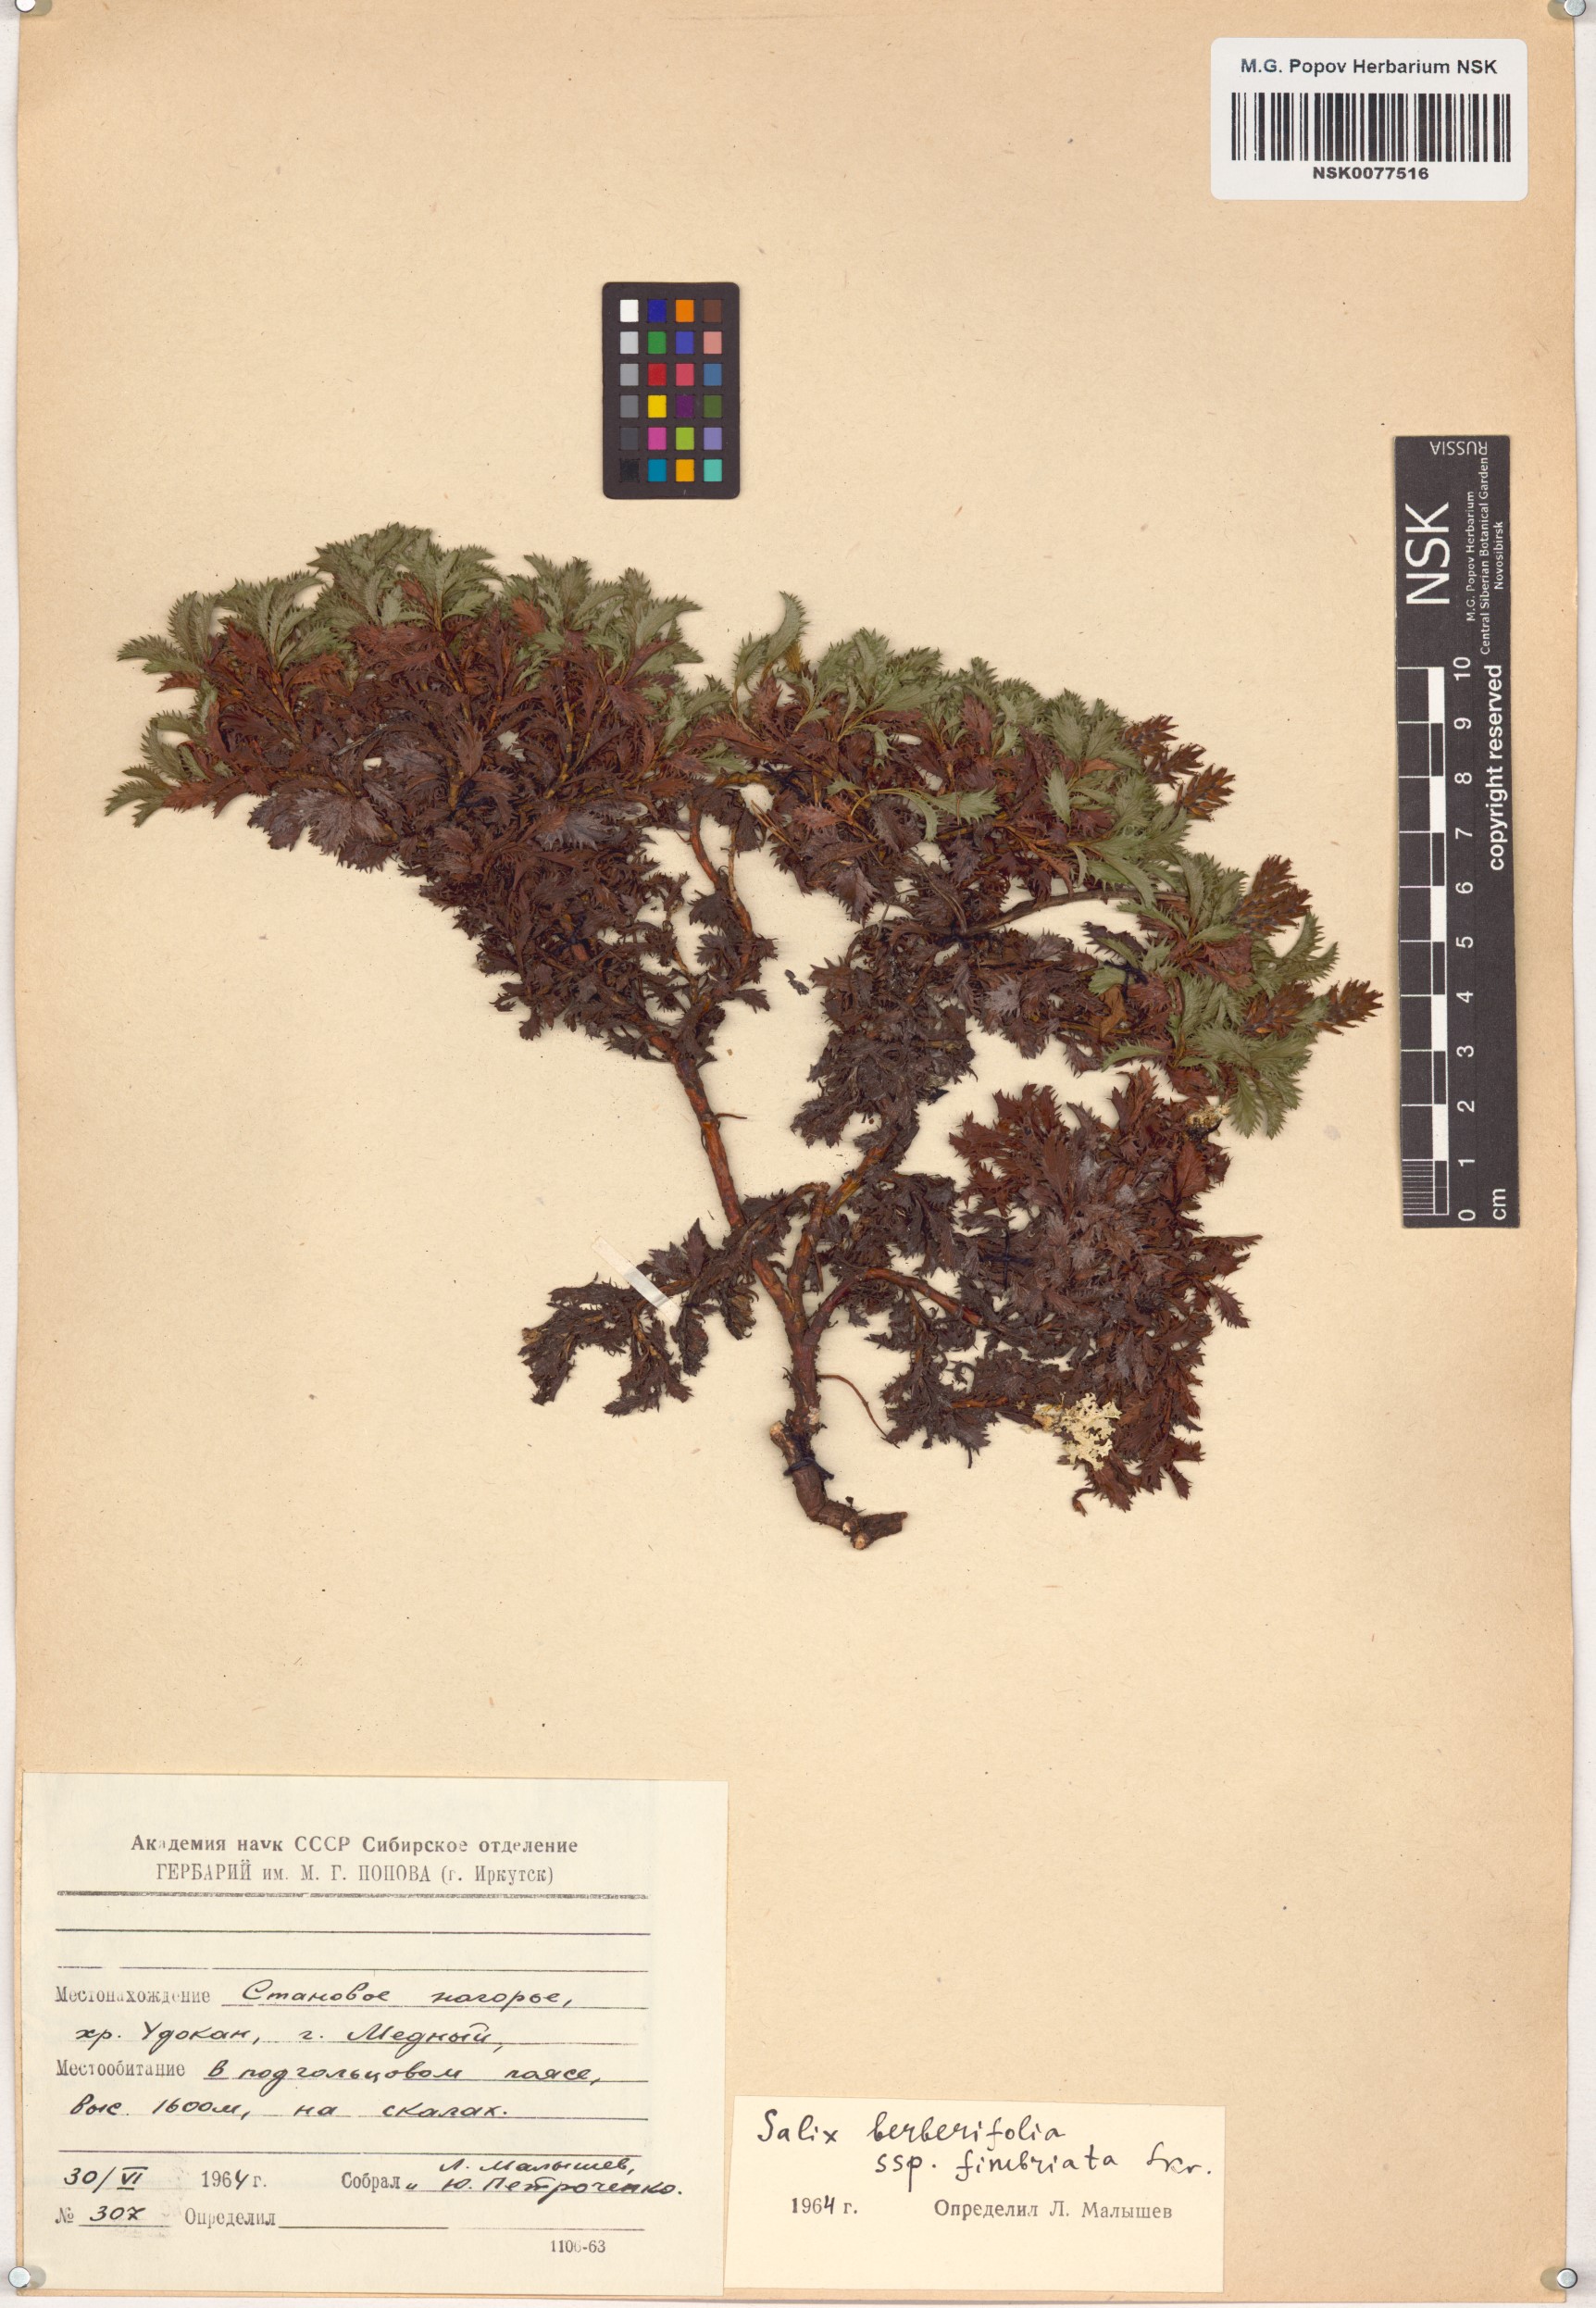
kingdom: Plantae
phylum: Tracheophyta
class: Magnoliopsida
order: Malpighiales
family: Salicaceae
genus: Salix
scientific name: Salix berberifolia
